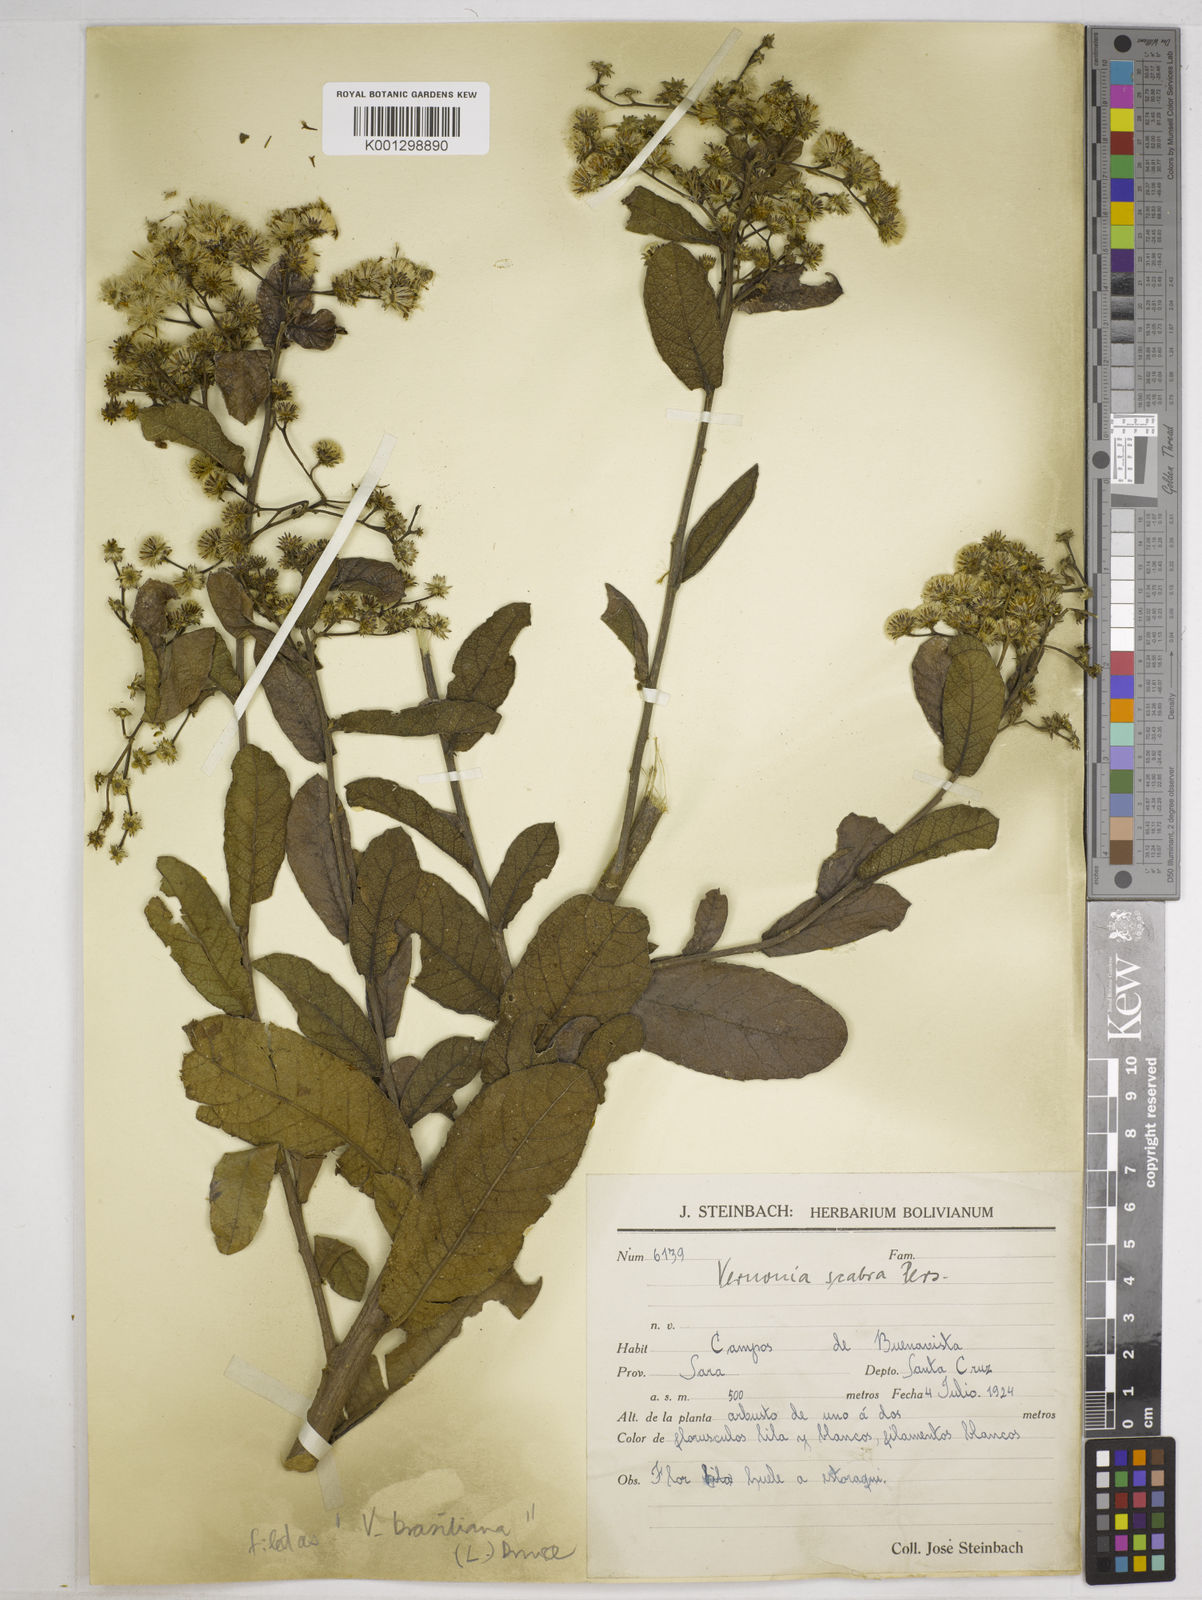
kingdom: Plantae
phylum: Tracheophyta
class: Magnoliopsida
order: Asterales
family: Asteraceae
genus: Vernonanthura
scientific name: Vernonanthura brasiliana
